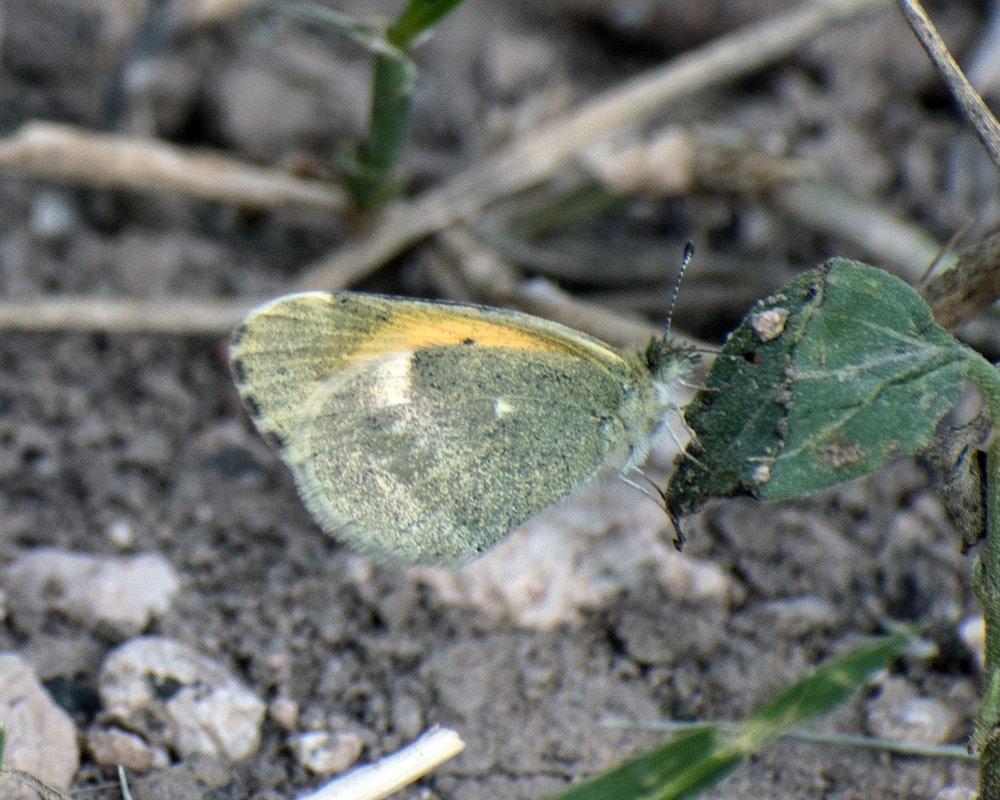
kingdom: Animalia
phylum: Arthropoda
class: Insecta
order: Lepidoptera
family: Pieridae
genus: Nathalis
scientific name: Nathalis iole
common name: Dainty Sulphur
